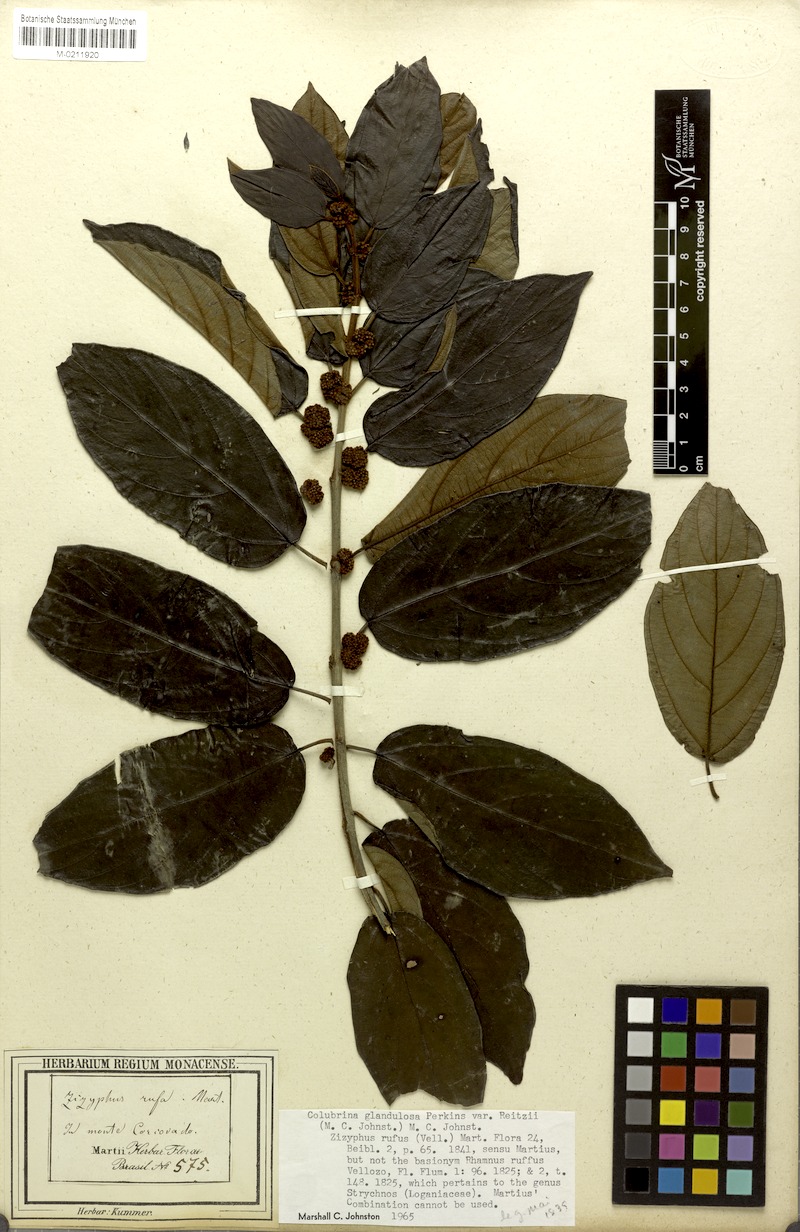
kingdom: Plantae
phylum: Tracheophyta
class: Magnoliopsida
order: Rosales
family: Rhamnaceae
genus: Colubrina
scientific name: Colubrina glandulosa
